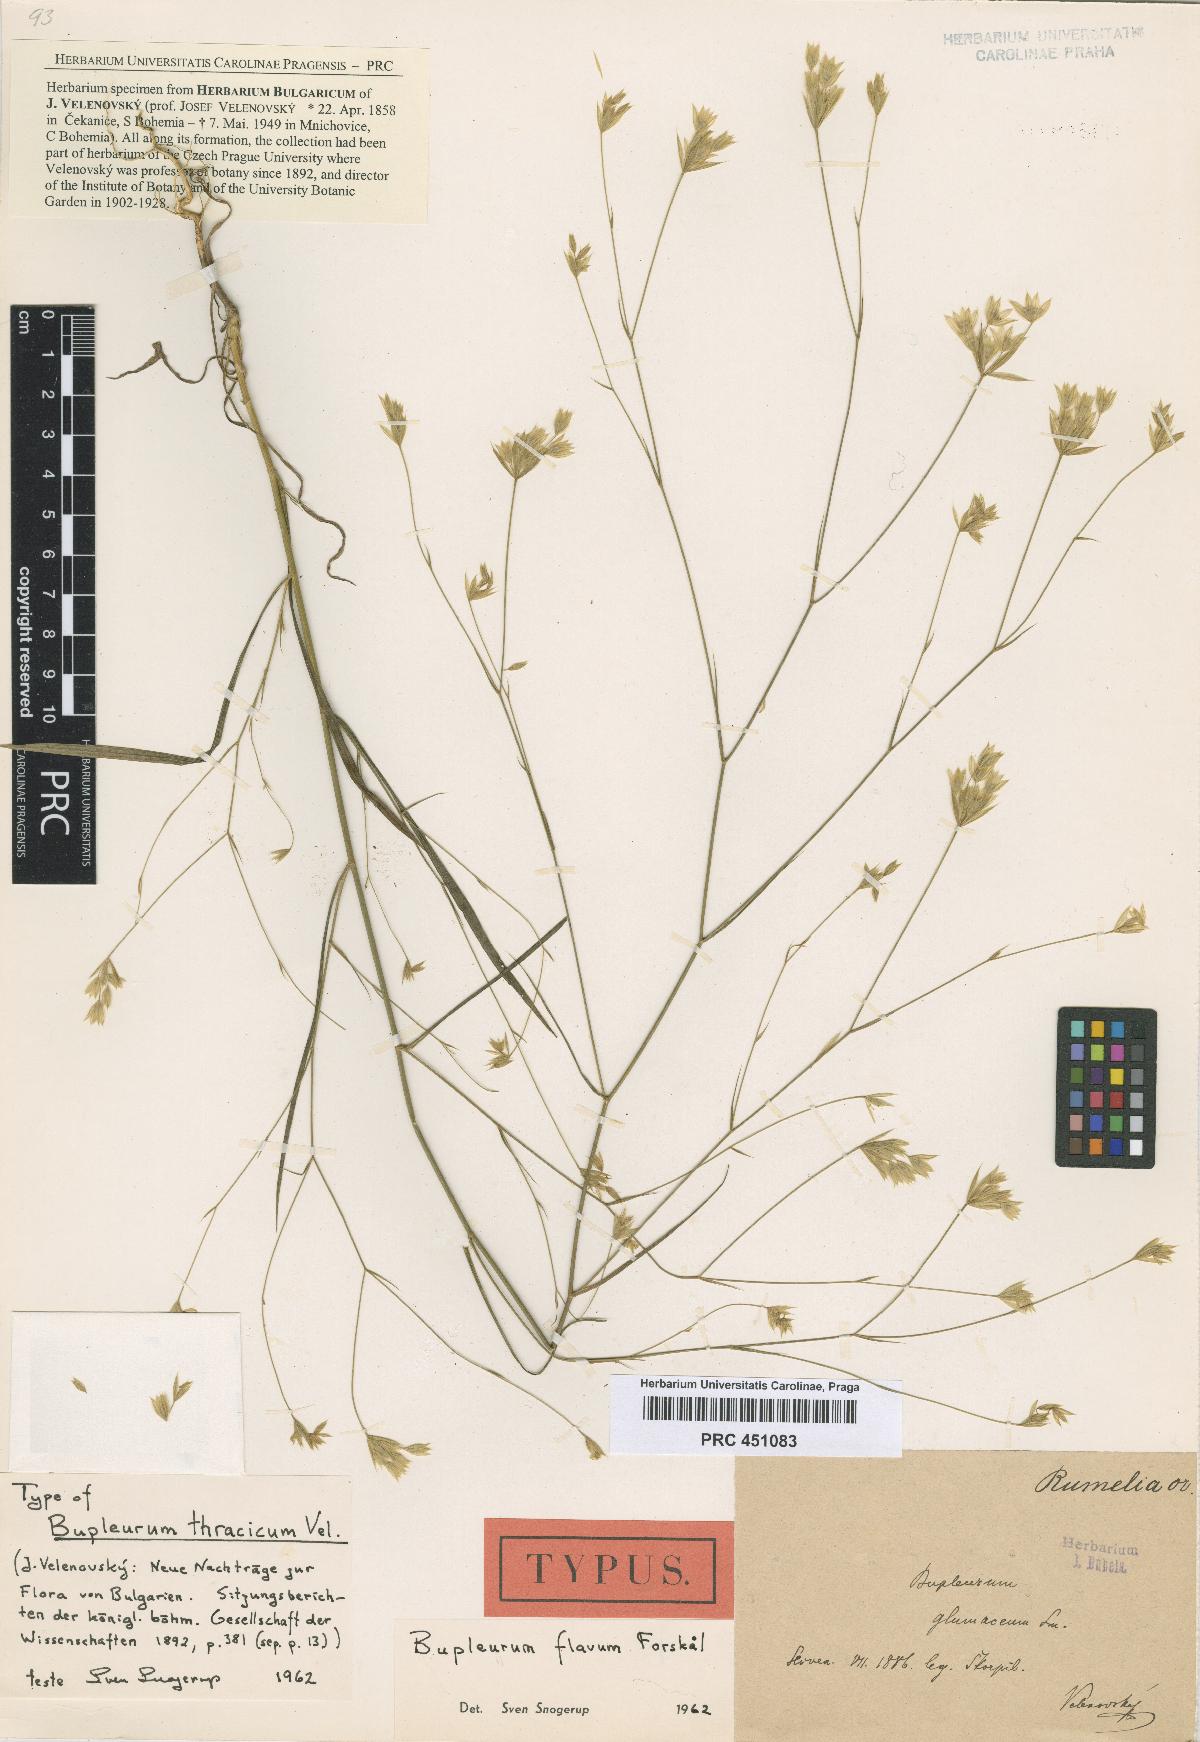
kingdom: Plantae
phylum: Tracheophyta
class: Magnoliopsida
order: Apiales
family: Apiaceae
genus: Bupleurum
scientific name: Bupleurum flavum
